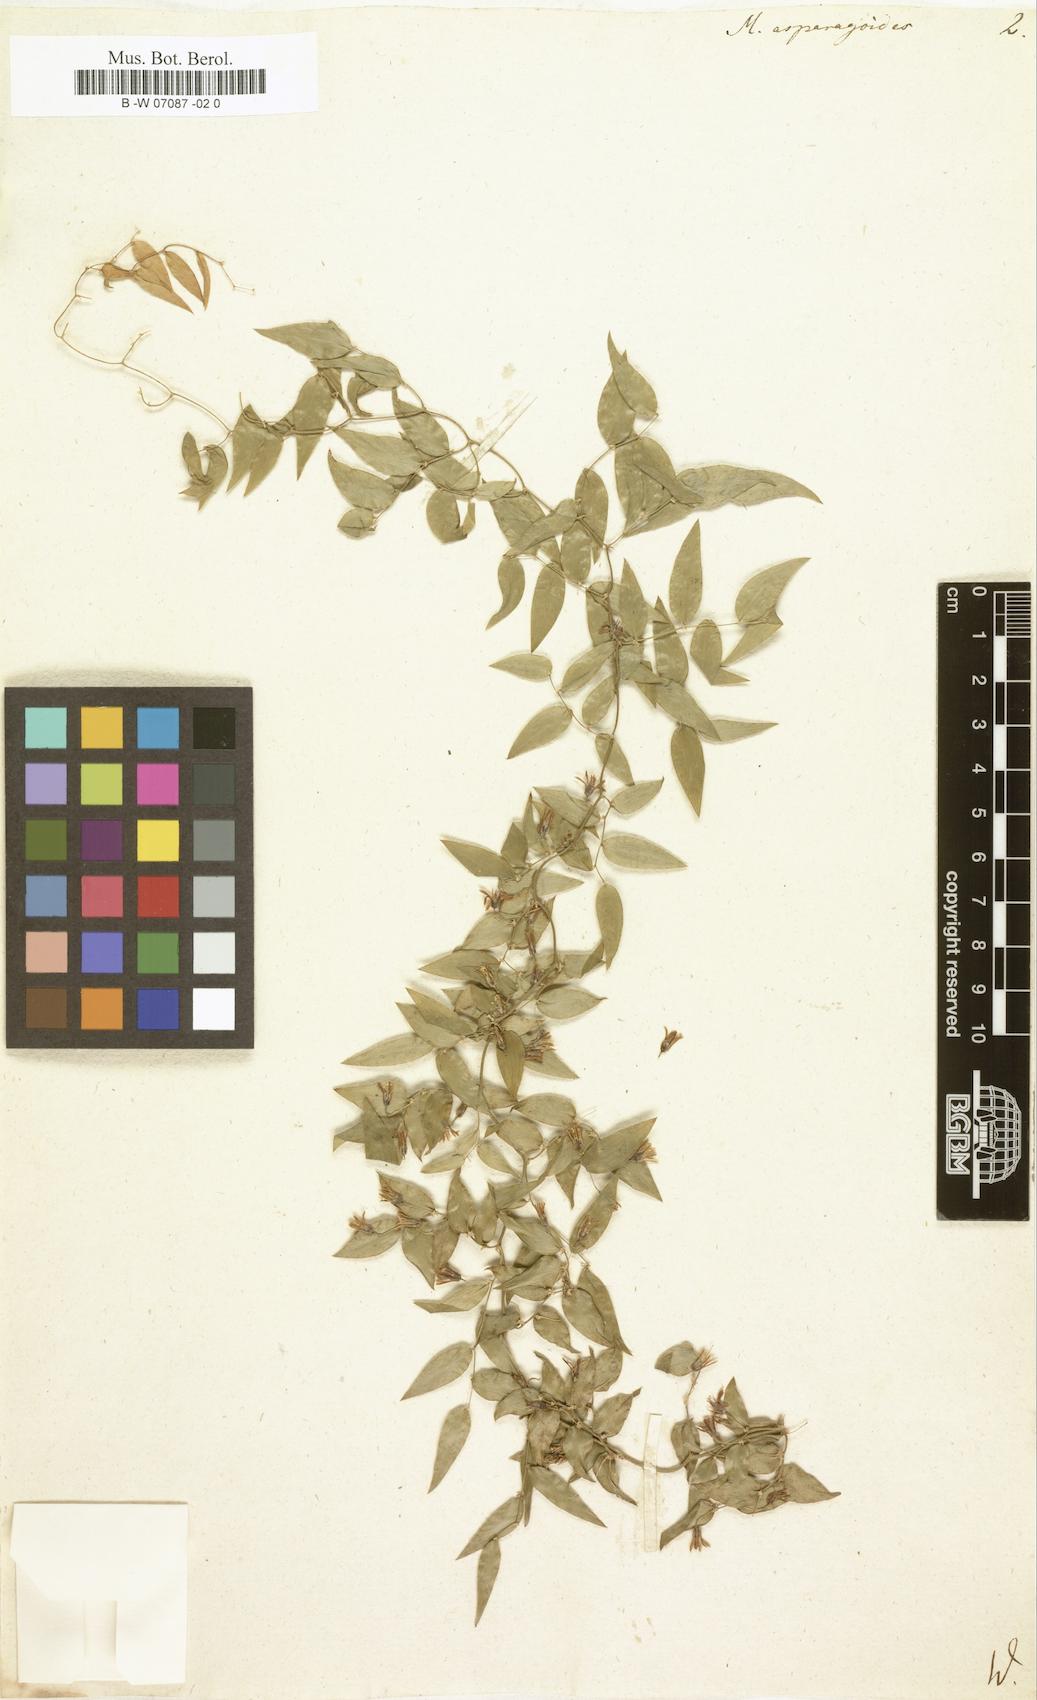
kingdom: Plantae
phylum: Tracheophyta
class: Liliopsida
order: Asparagales
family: Asparagaceae
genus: Asparagus
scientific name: Asparagus asparagoides
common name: African asparagus fern
